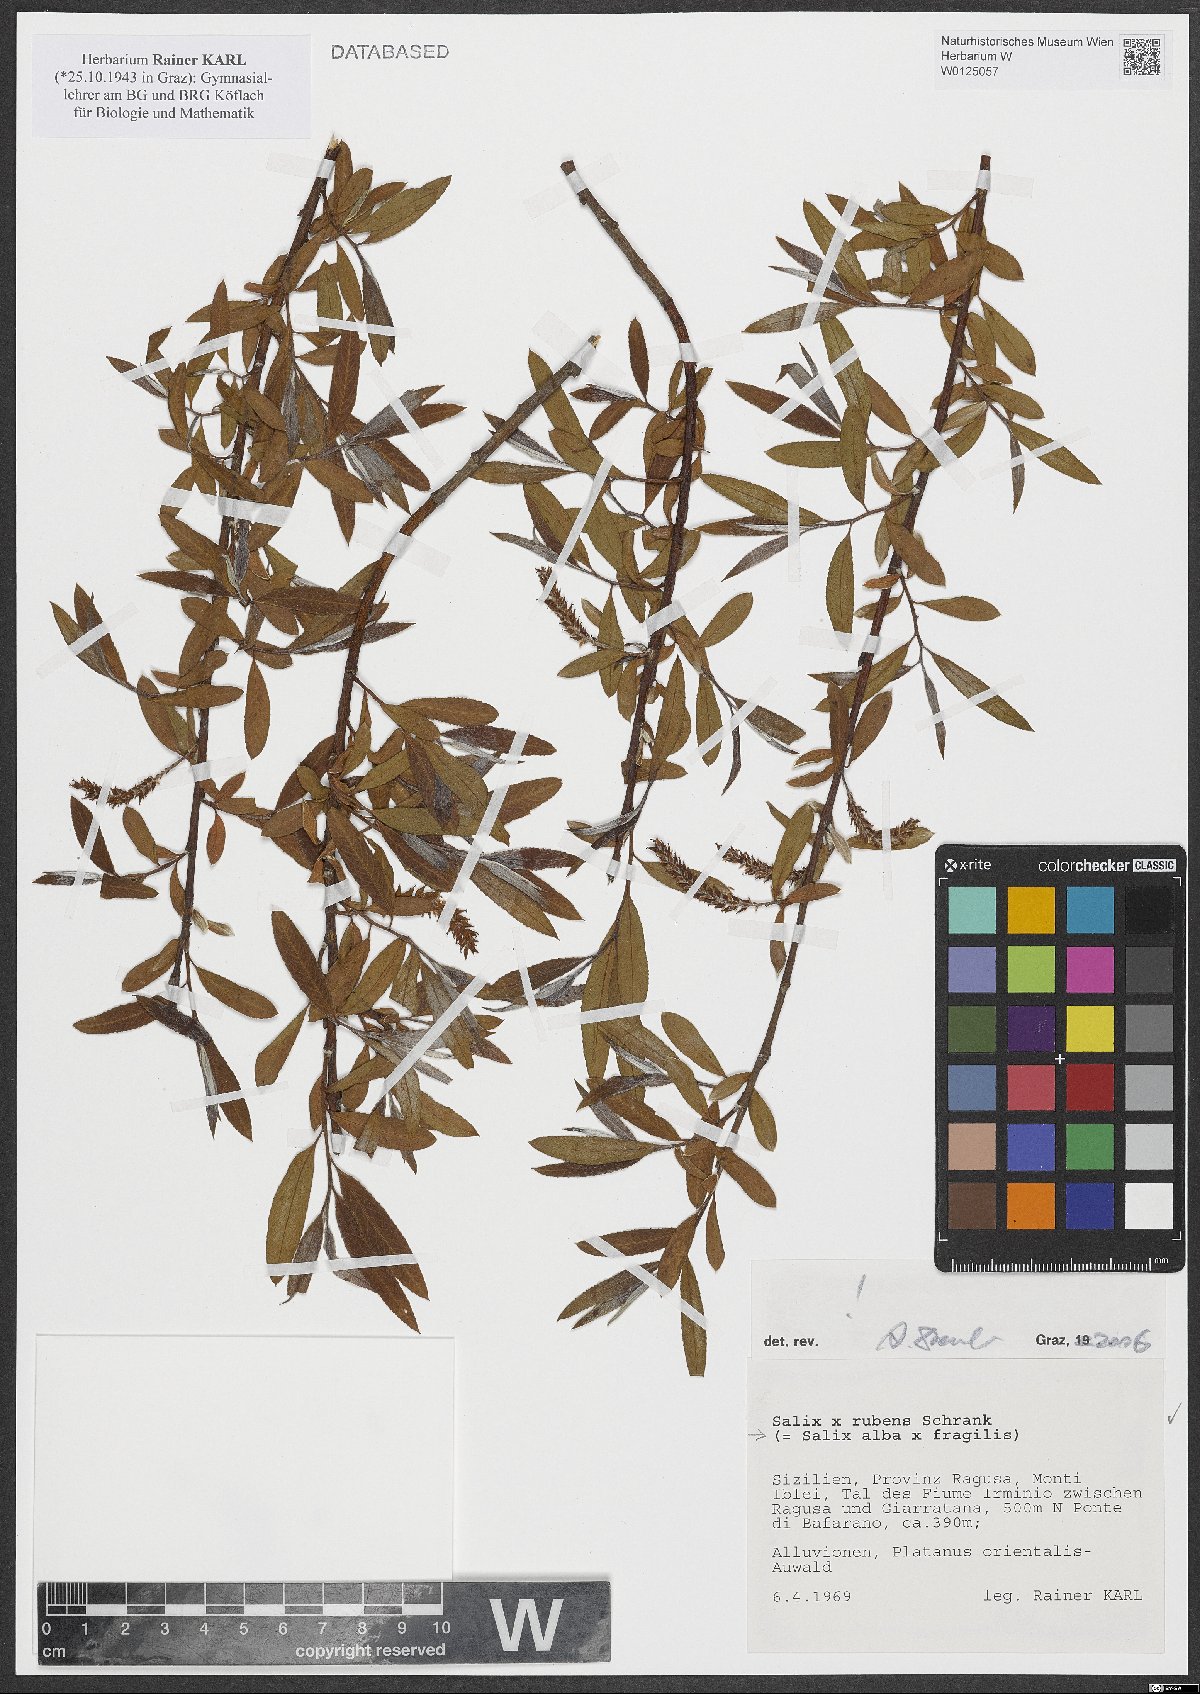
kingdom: Plantae
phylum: Tracheophyta
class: Magnoliopsida
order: Malpighiales
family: Salicaceae
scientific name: Salicaceae
